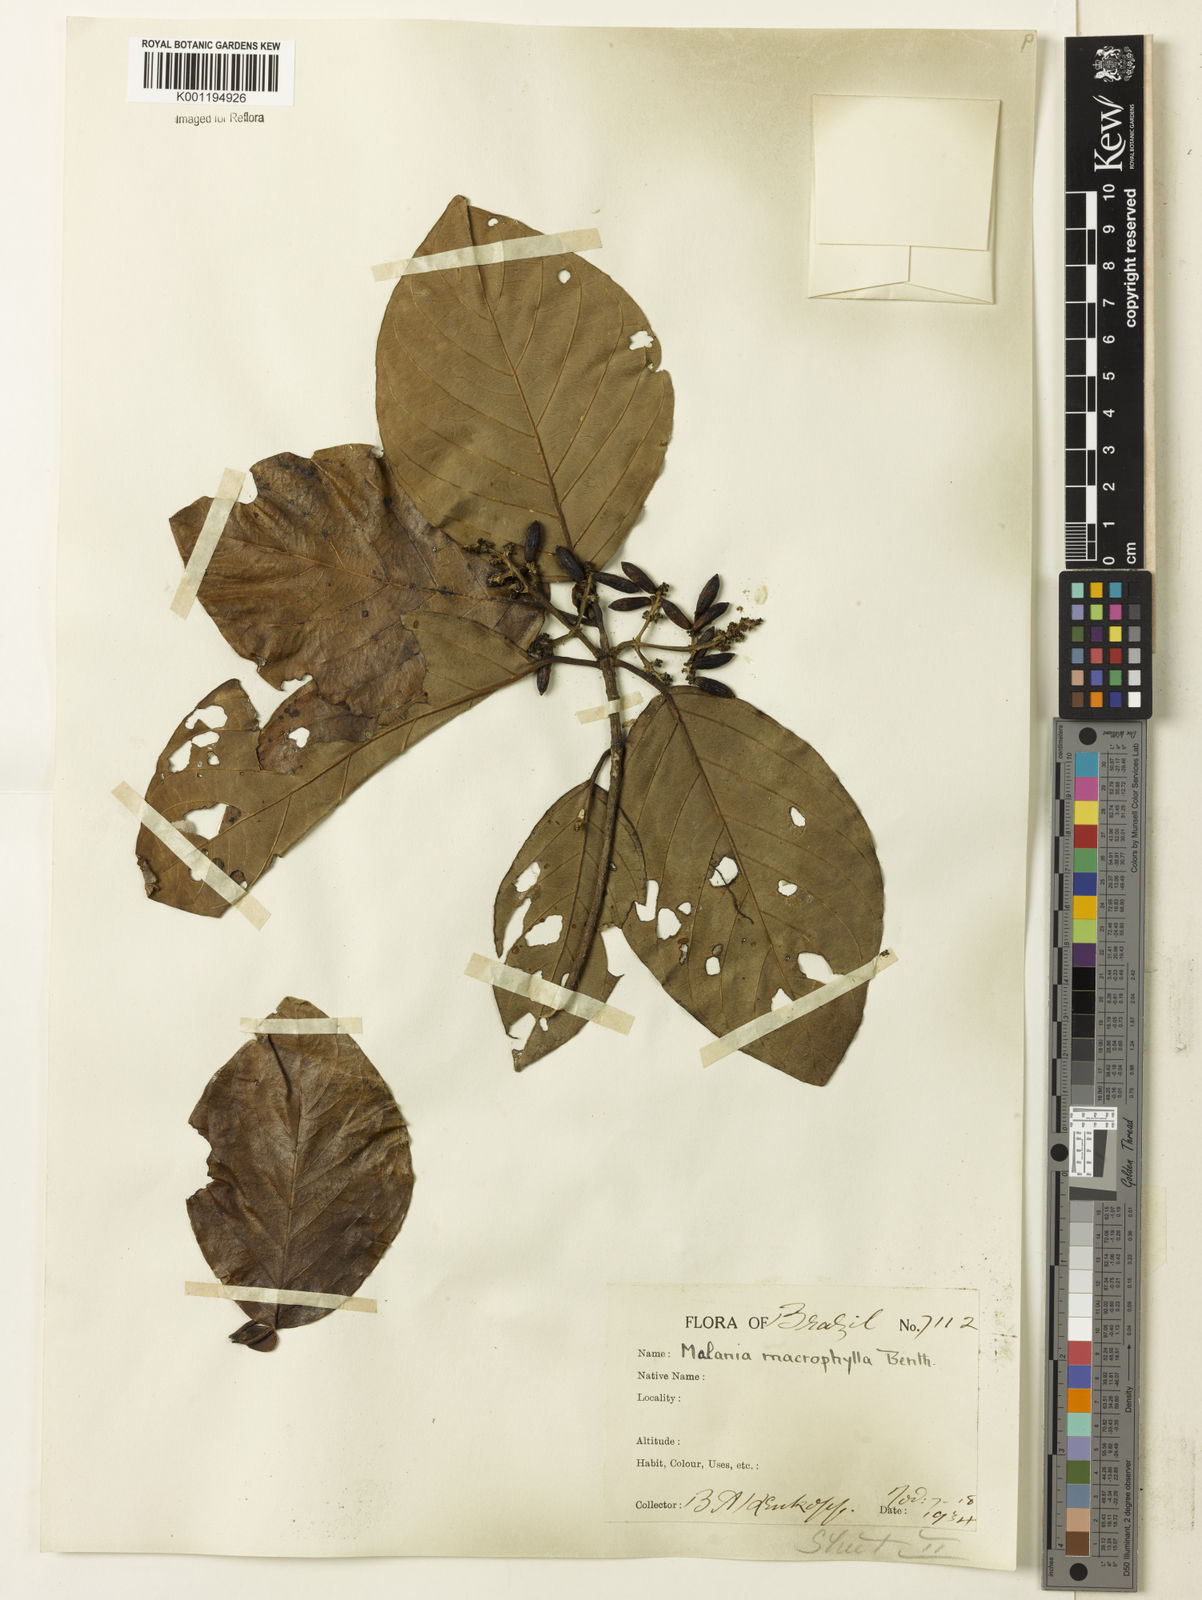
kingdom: Plantae
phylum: Tracheophyta
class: Magnoliopsida
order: Gentianales
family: Rubiaceae
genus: Malanea
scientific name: Malanea glabra
